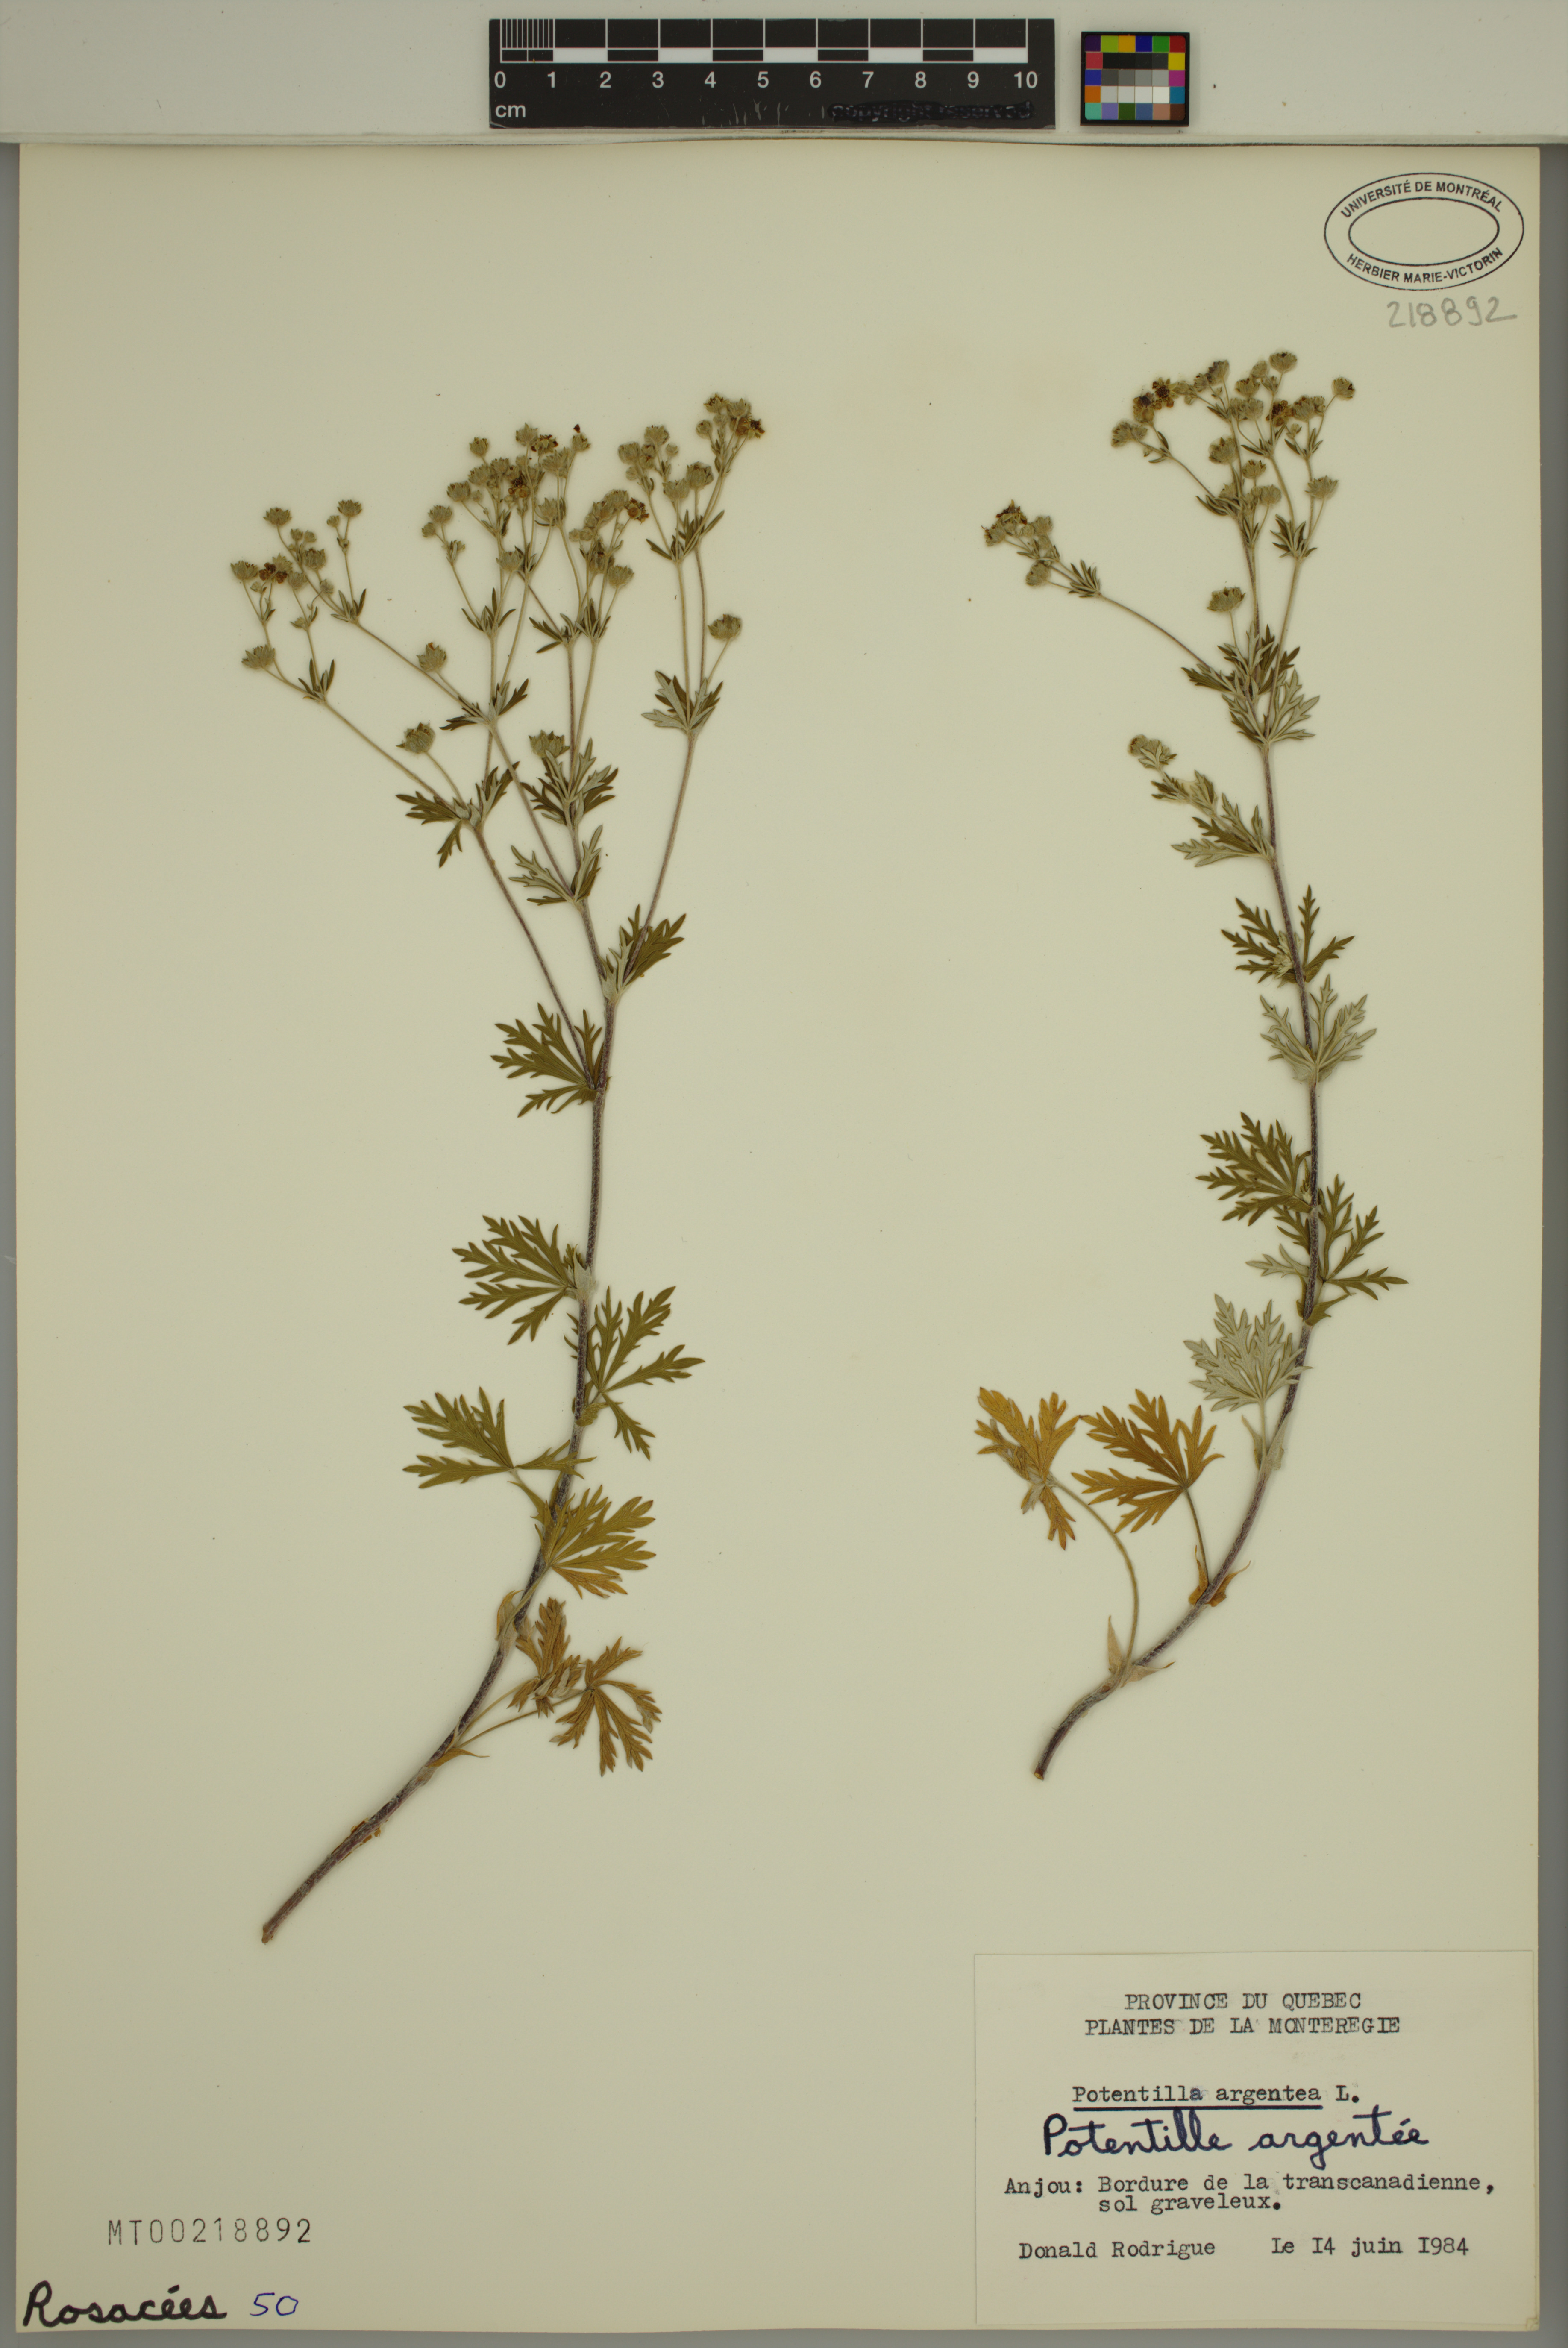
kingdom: Plantae
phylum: Tracheophyta
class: Magnoliopsida
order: Rosales
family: Rosaceae
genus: Potentilla
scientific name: Potentilla argentea
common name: Hoary cinquefoil
